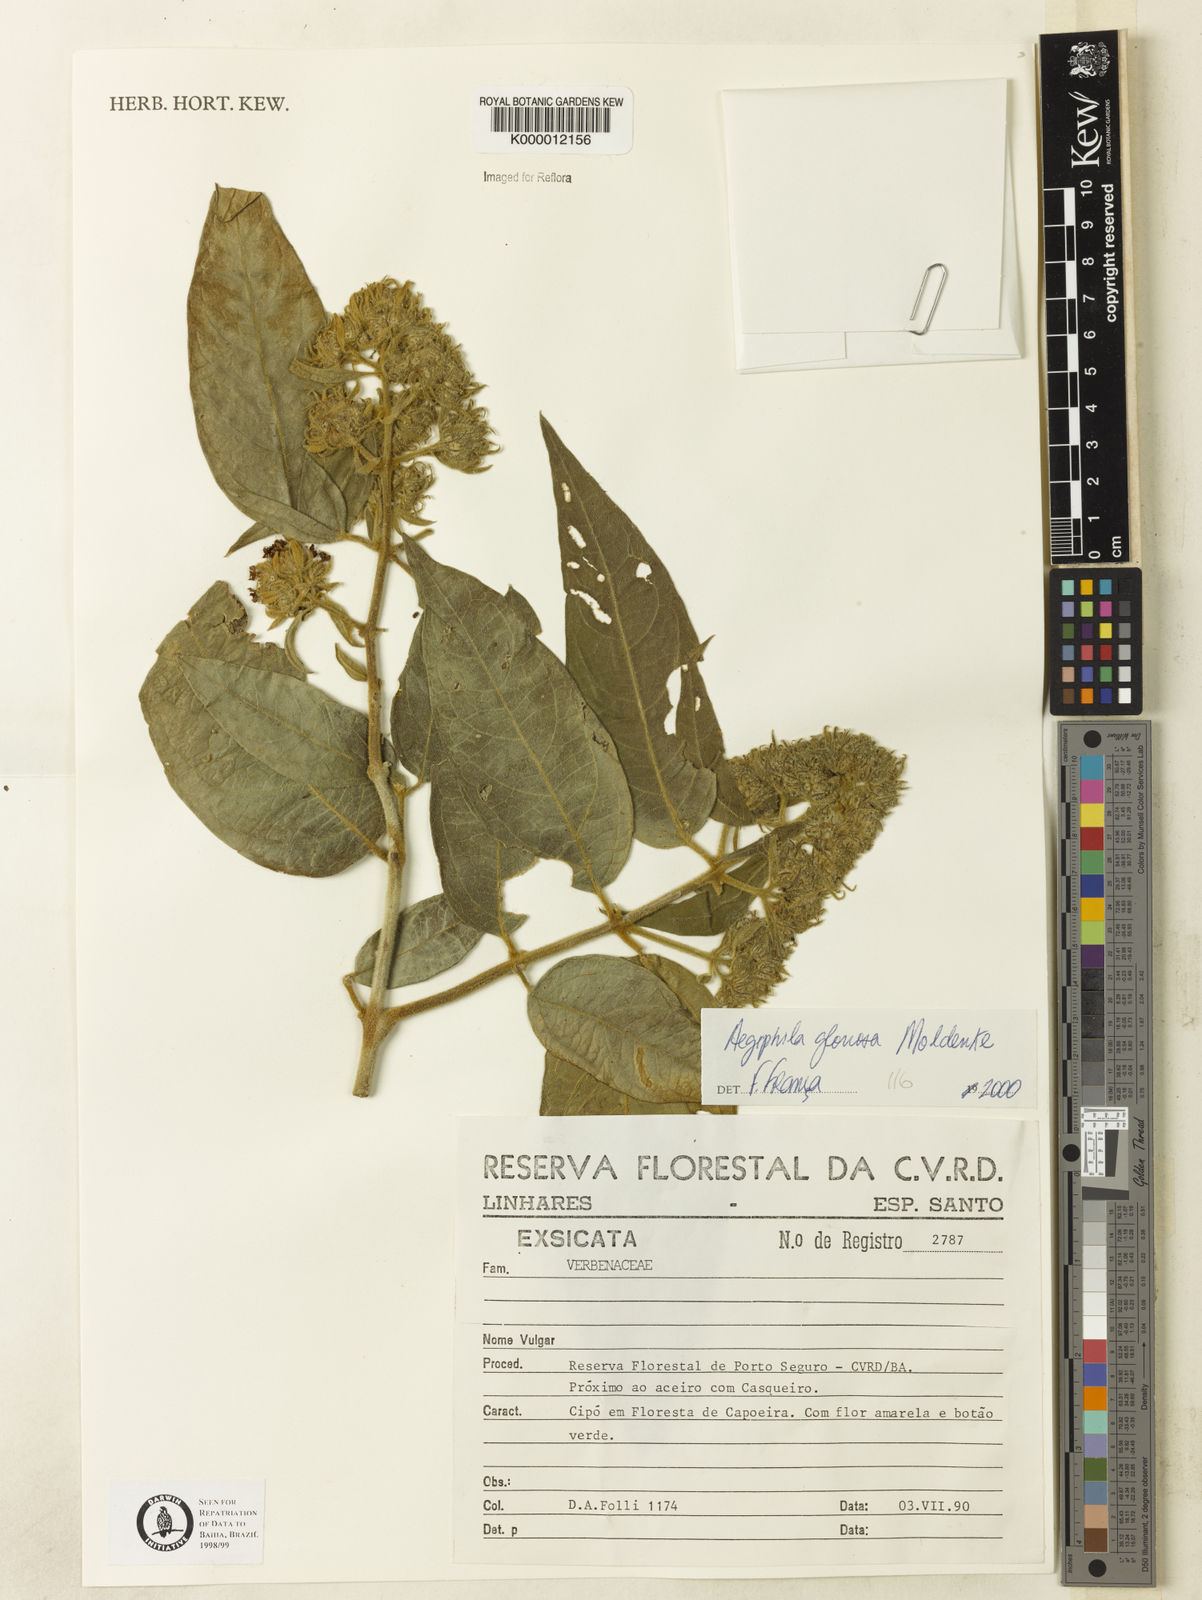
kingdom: Plantae
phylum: Tracheophyta
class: Magnoliopsida
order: Lamiales
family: Lamiaceae
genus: Aegiphila
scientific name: Aegiphila gloriosa
